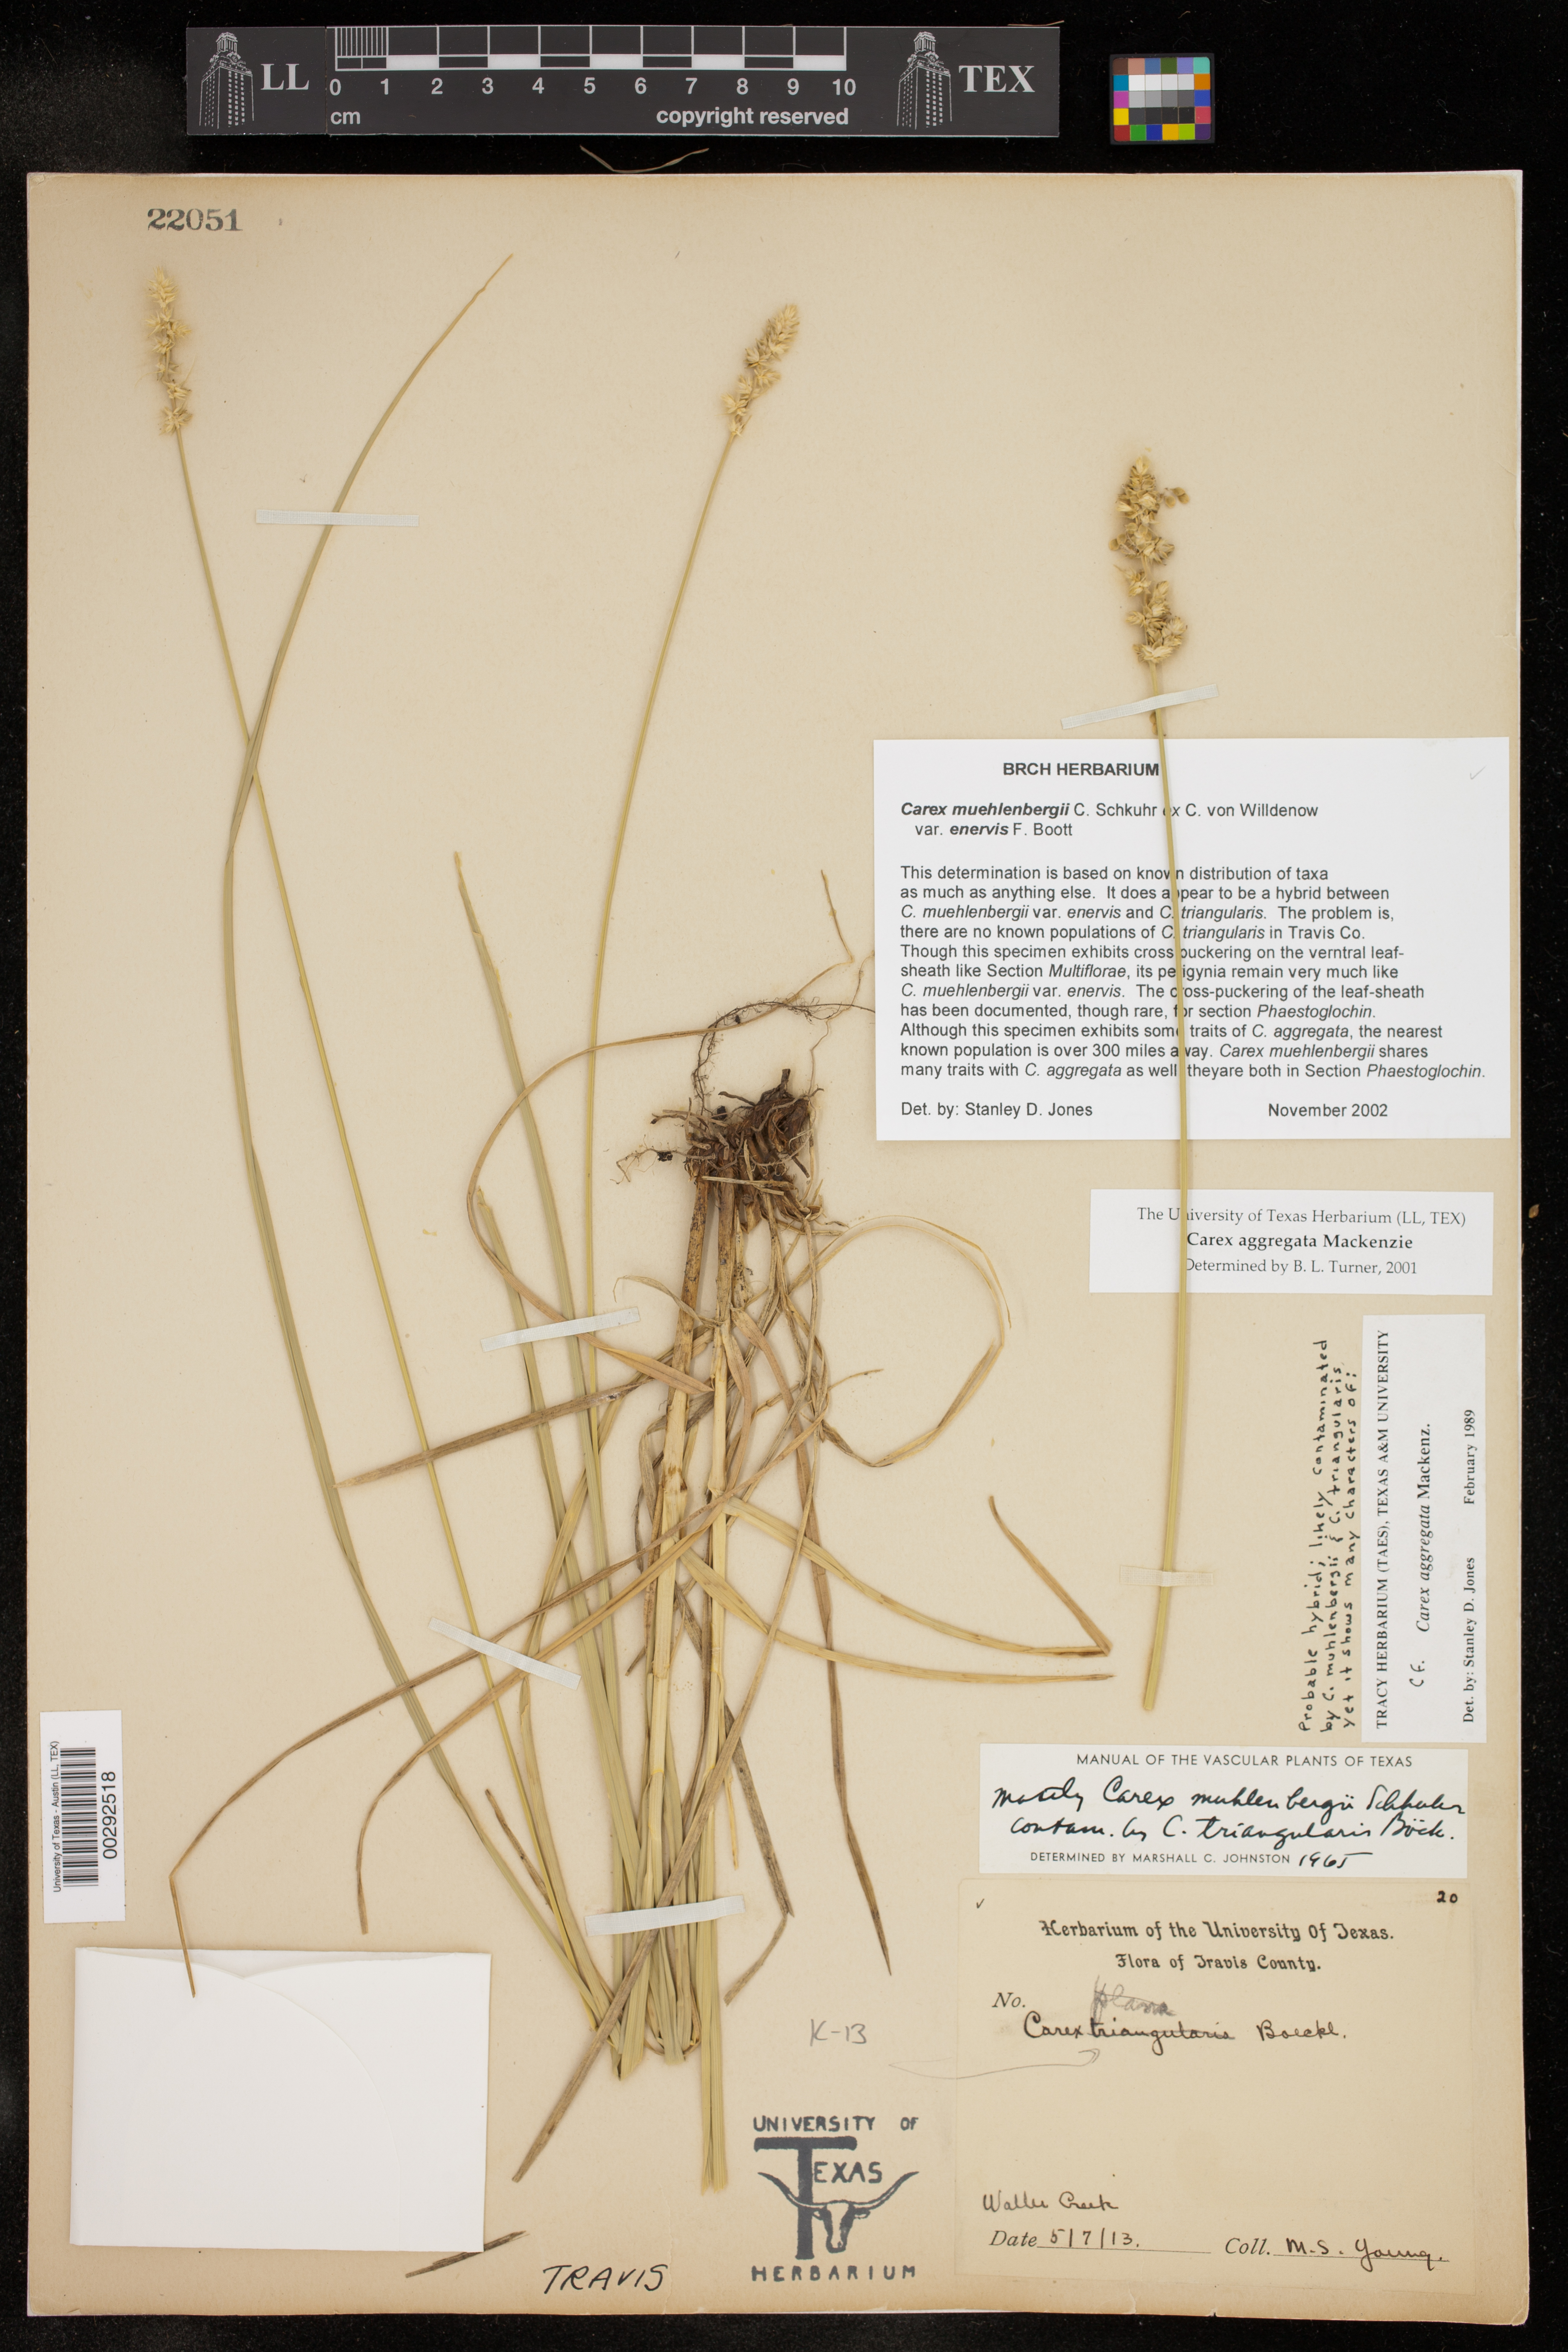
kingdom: Plantae
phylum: Tracheophyta
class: Liliopsida
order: Poales
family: Cyperaceae
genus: Carex
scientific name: Carex muehlenbergii
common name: Muhlenberg's bracted sedge
